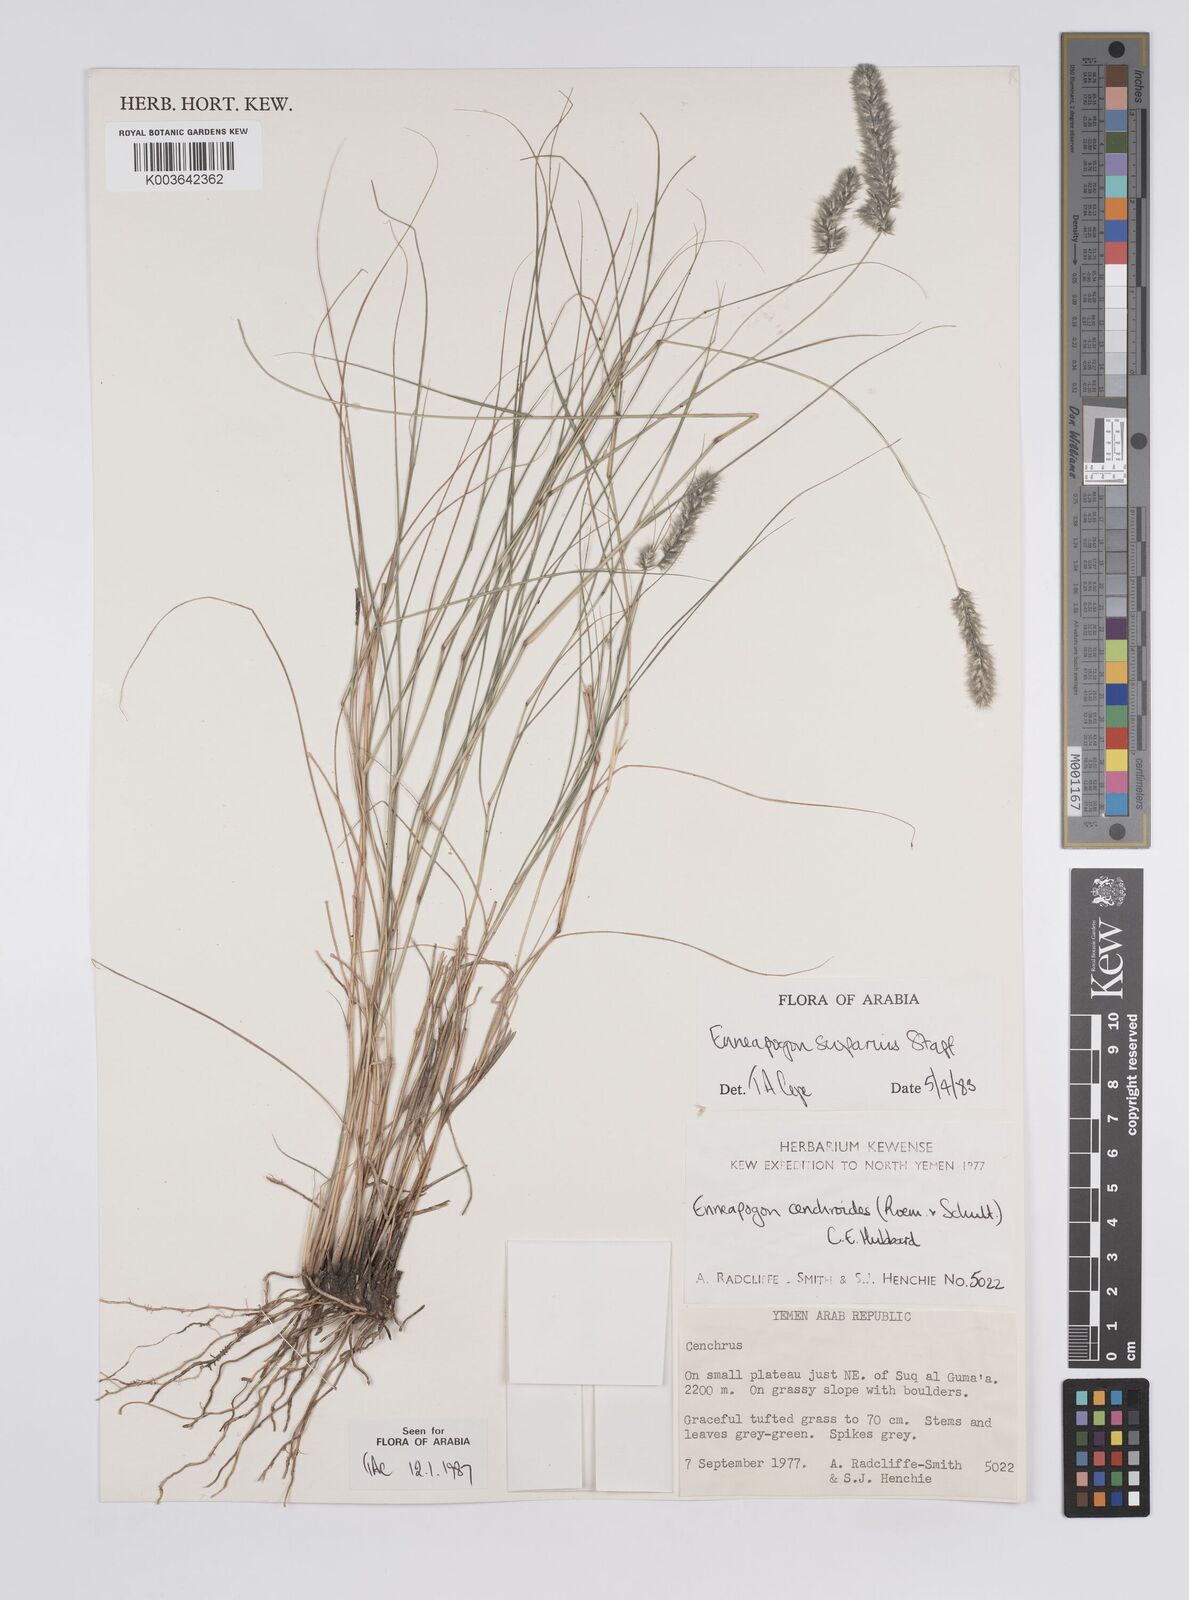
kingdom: Plantae
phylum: Tracheophyta
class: Liliopsida
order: Poales
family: Poaceae
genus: Enneapogon
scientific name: Enneapogon scoparius
